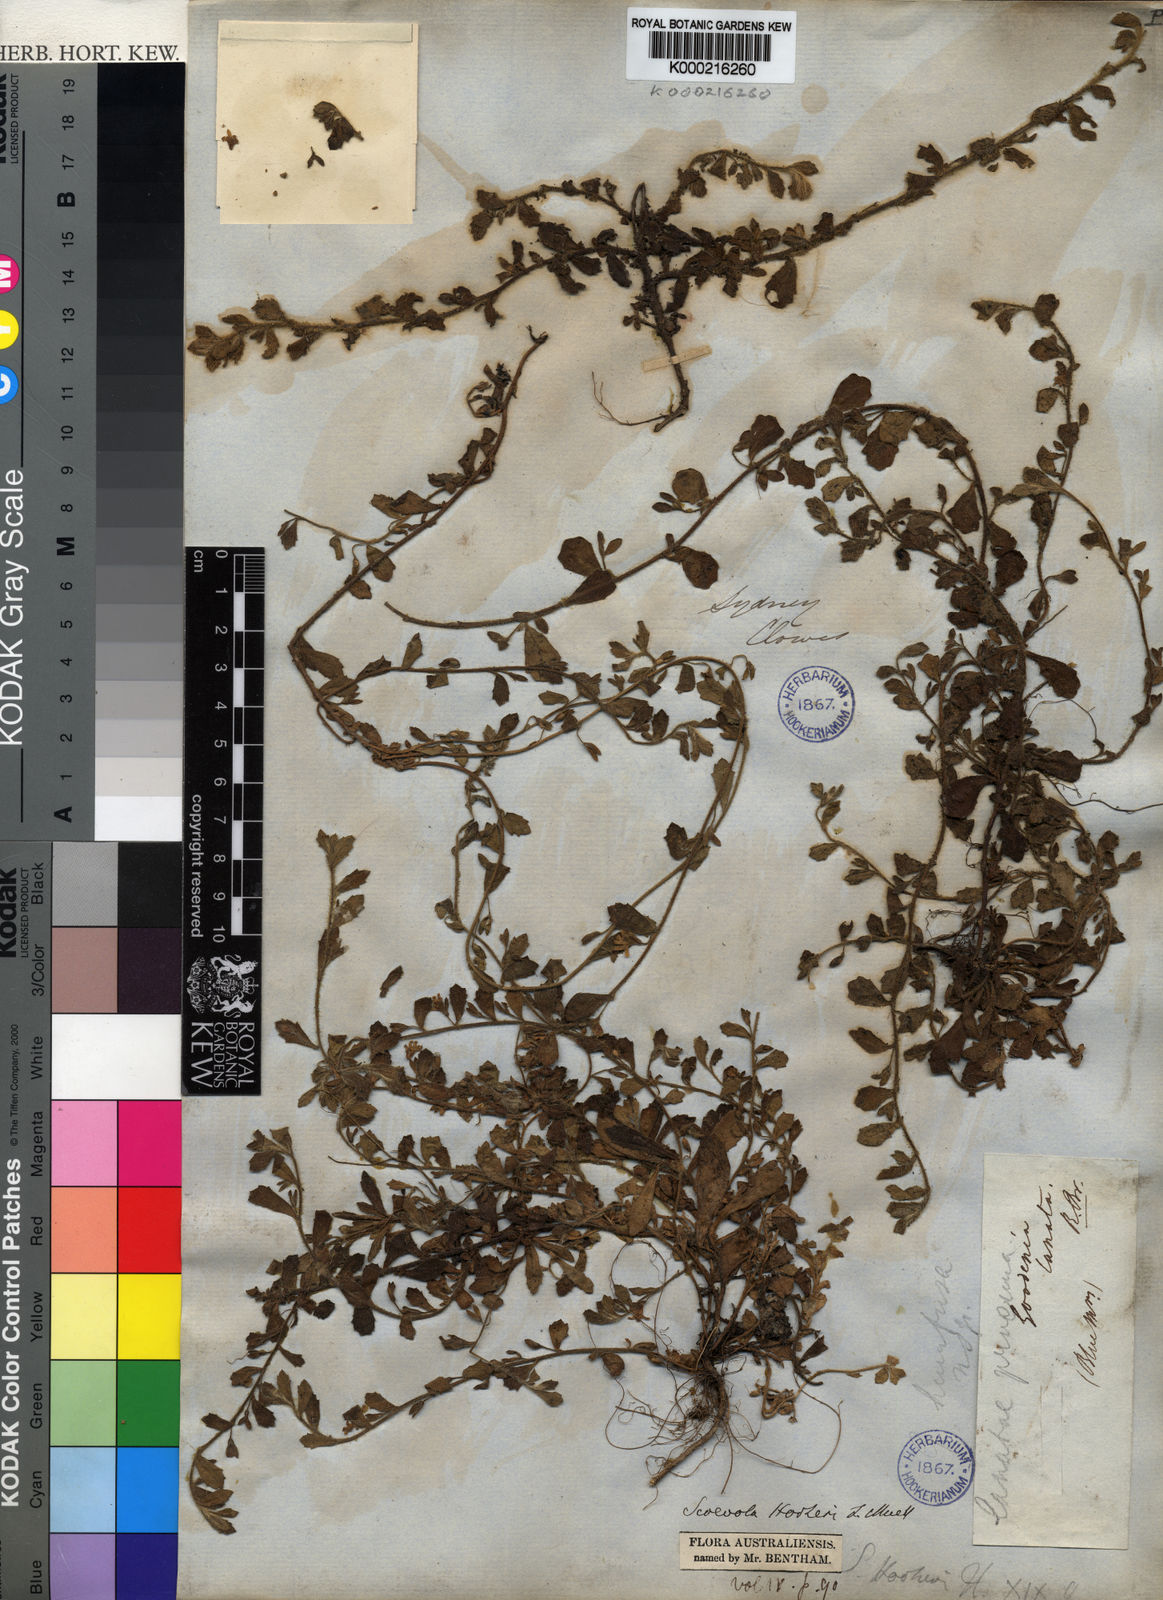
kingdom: Plantae
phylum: Tracheophyta
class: Magnoliopsida
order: Asterales
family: Goodeniaceae
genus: Scaevola
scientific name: Scaevola hookeri
